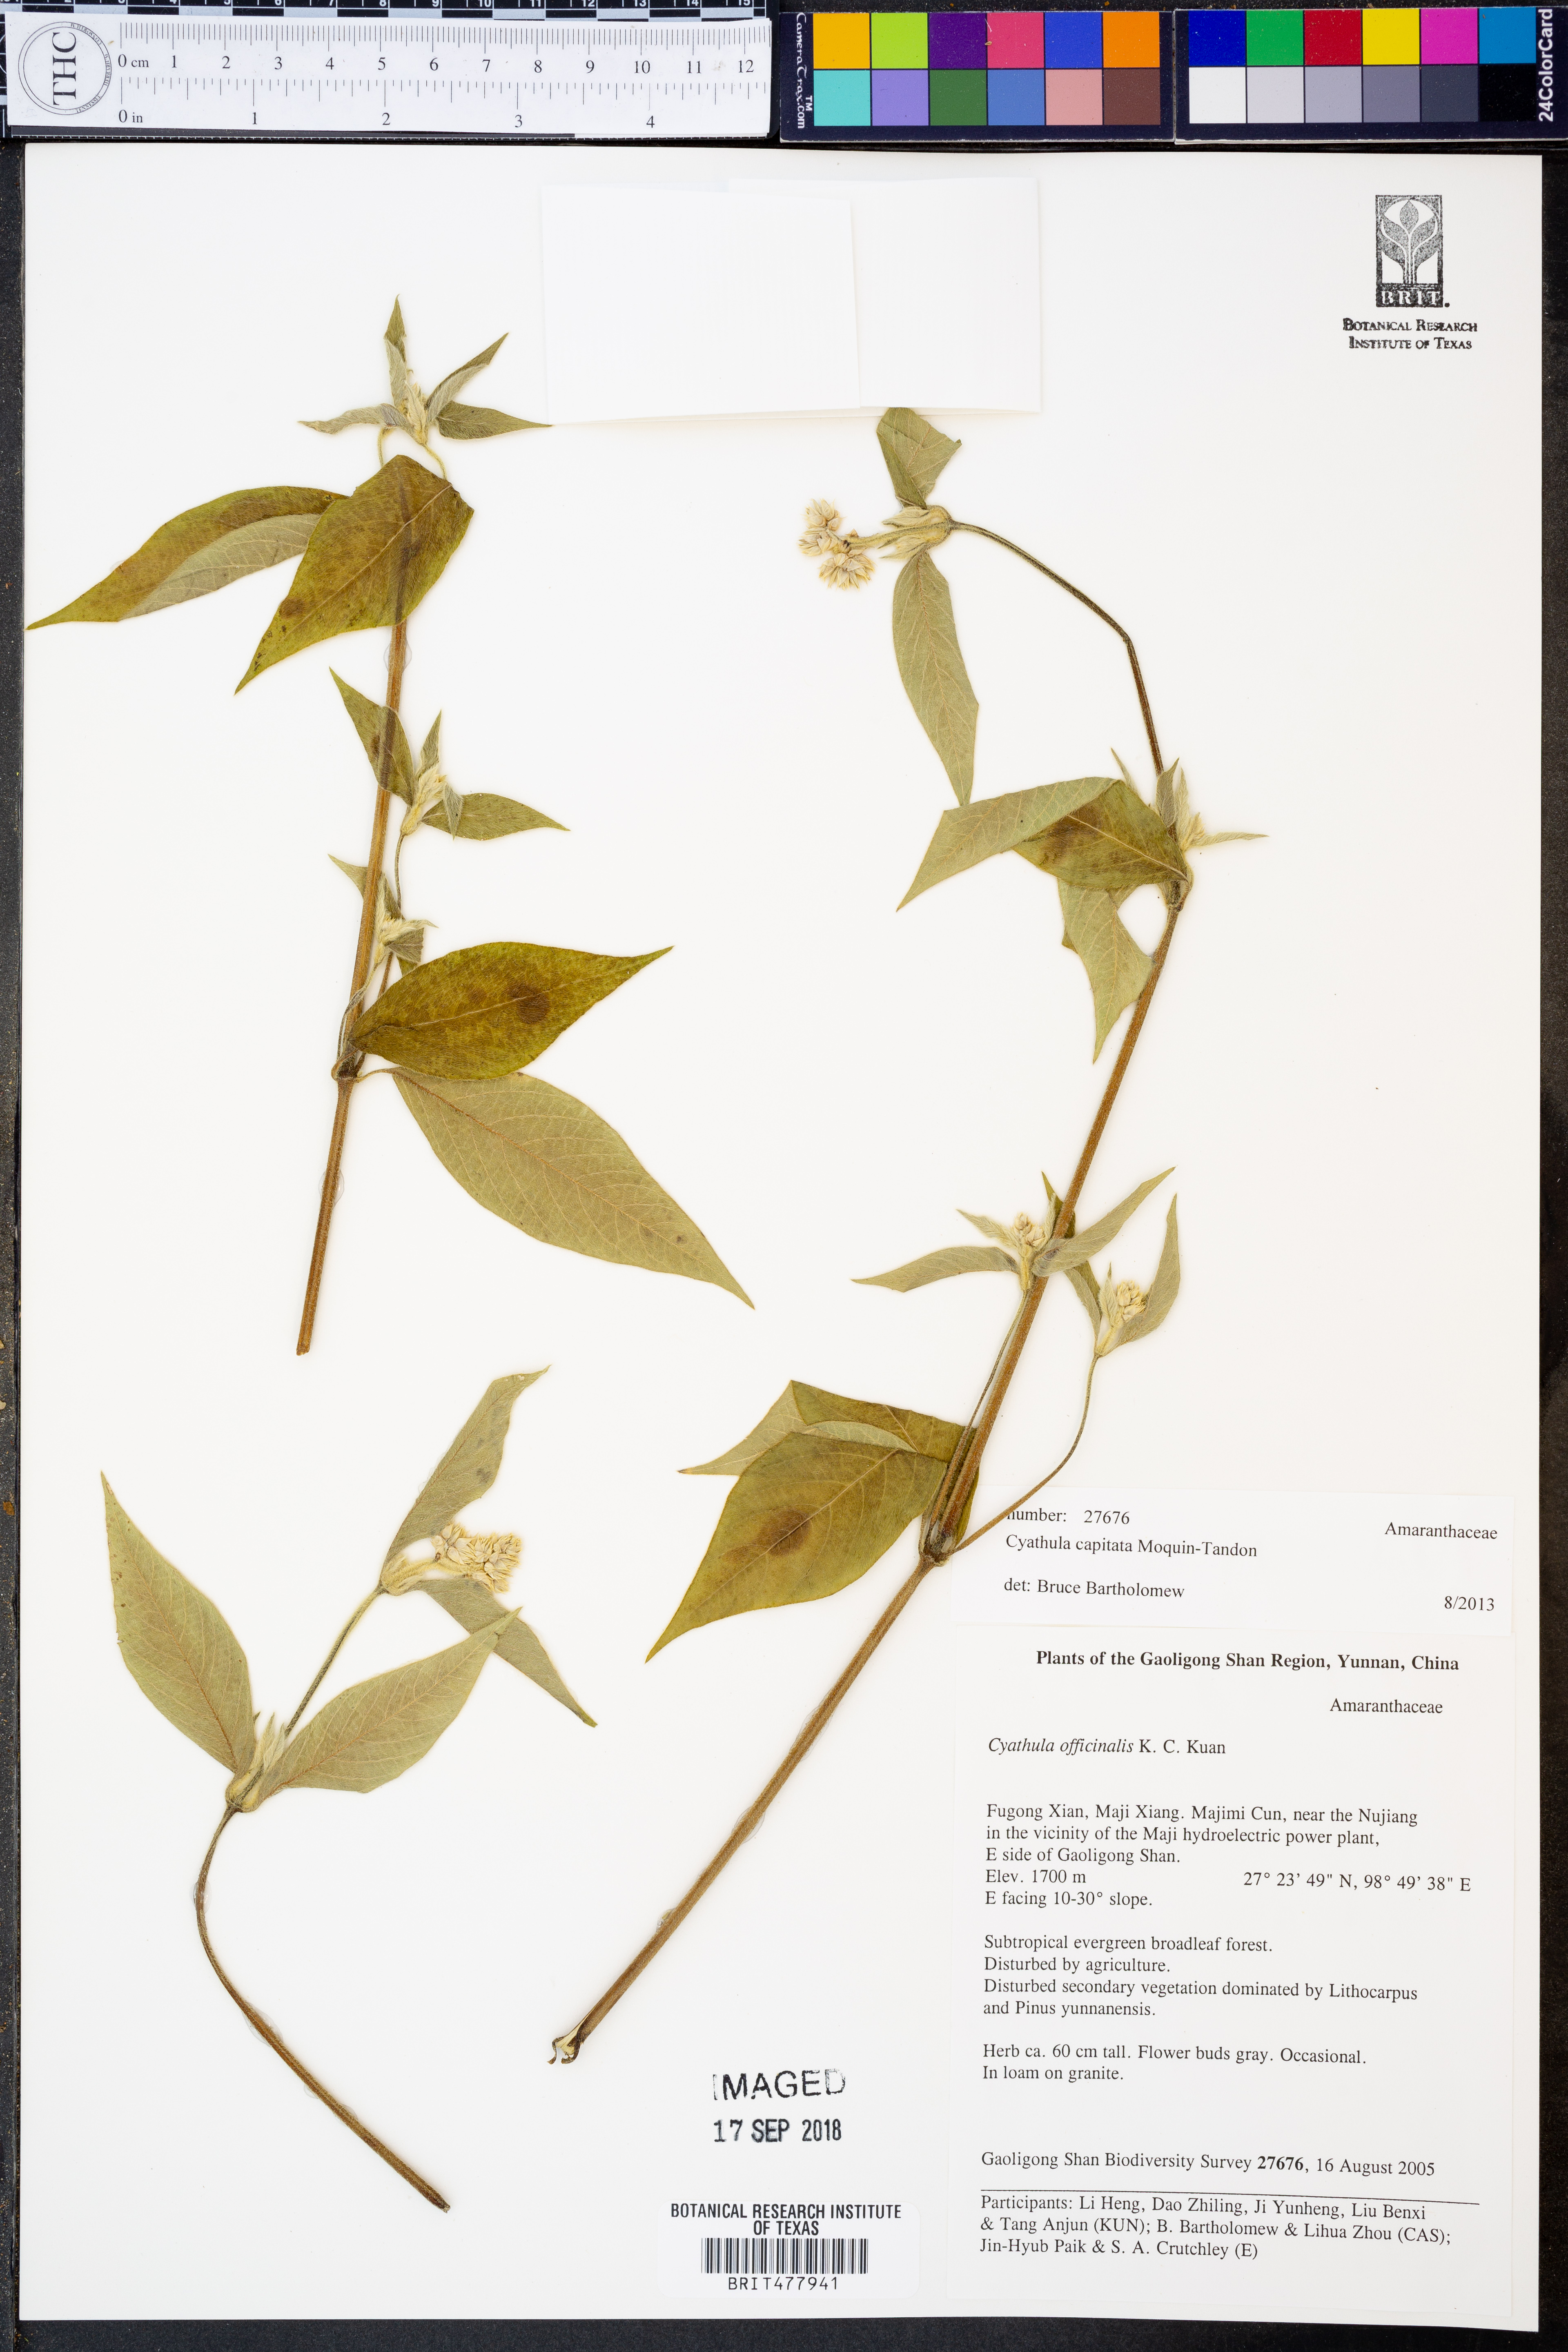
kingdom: Plantae
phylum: Tracheophyta
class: Magnoliopsida
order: Caryophyllales
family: Amaranthaceae
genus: Cyathula
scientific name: Cyathula capitata
